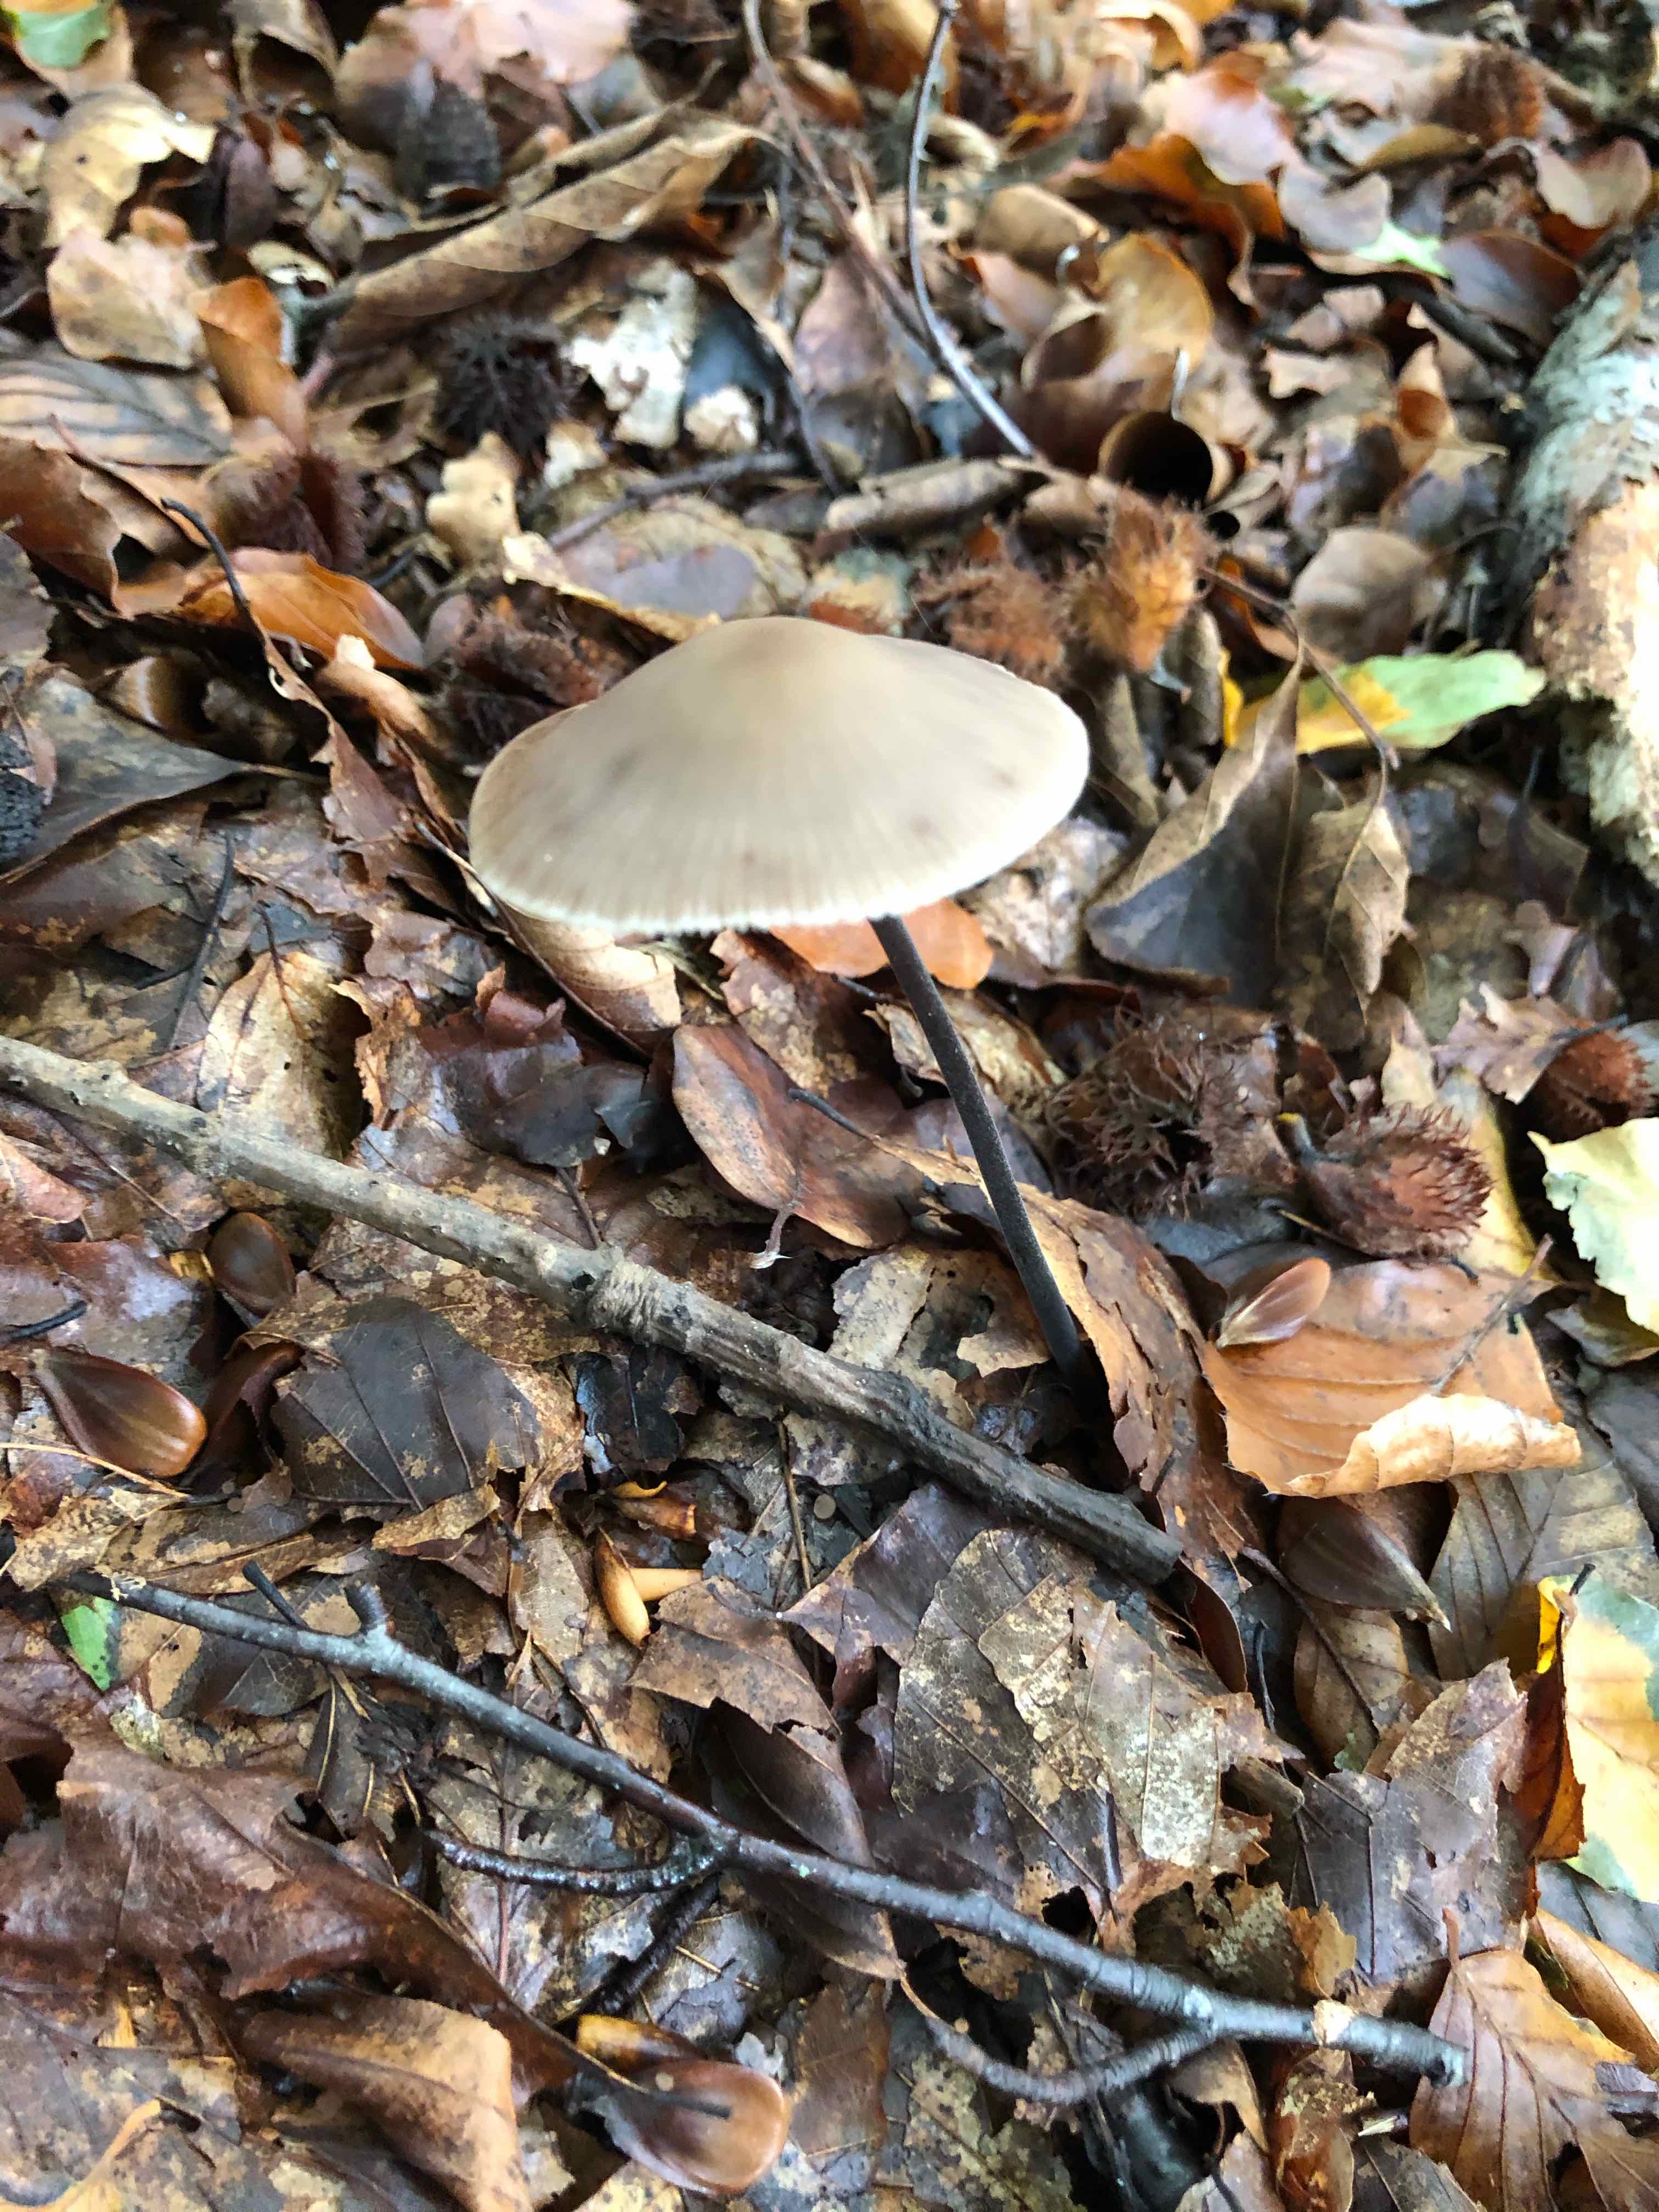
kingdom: Fungi
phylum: Basidiomycota
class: Agaricomycetes
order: Agaricales
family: Omphalotaceae
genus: Mycetinis
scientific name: Mycetinis alliaceus
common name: stor løghat
